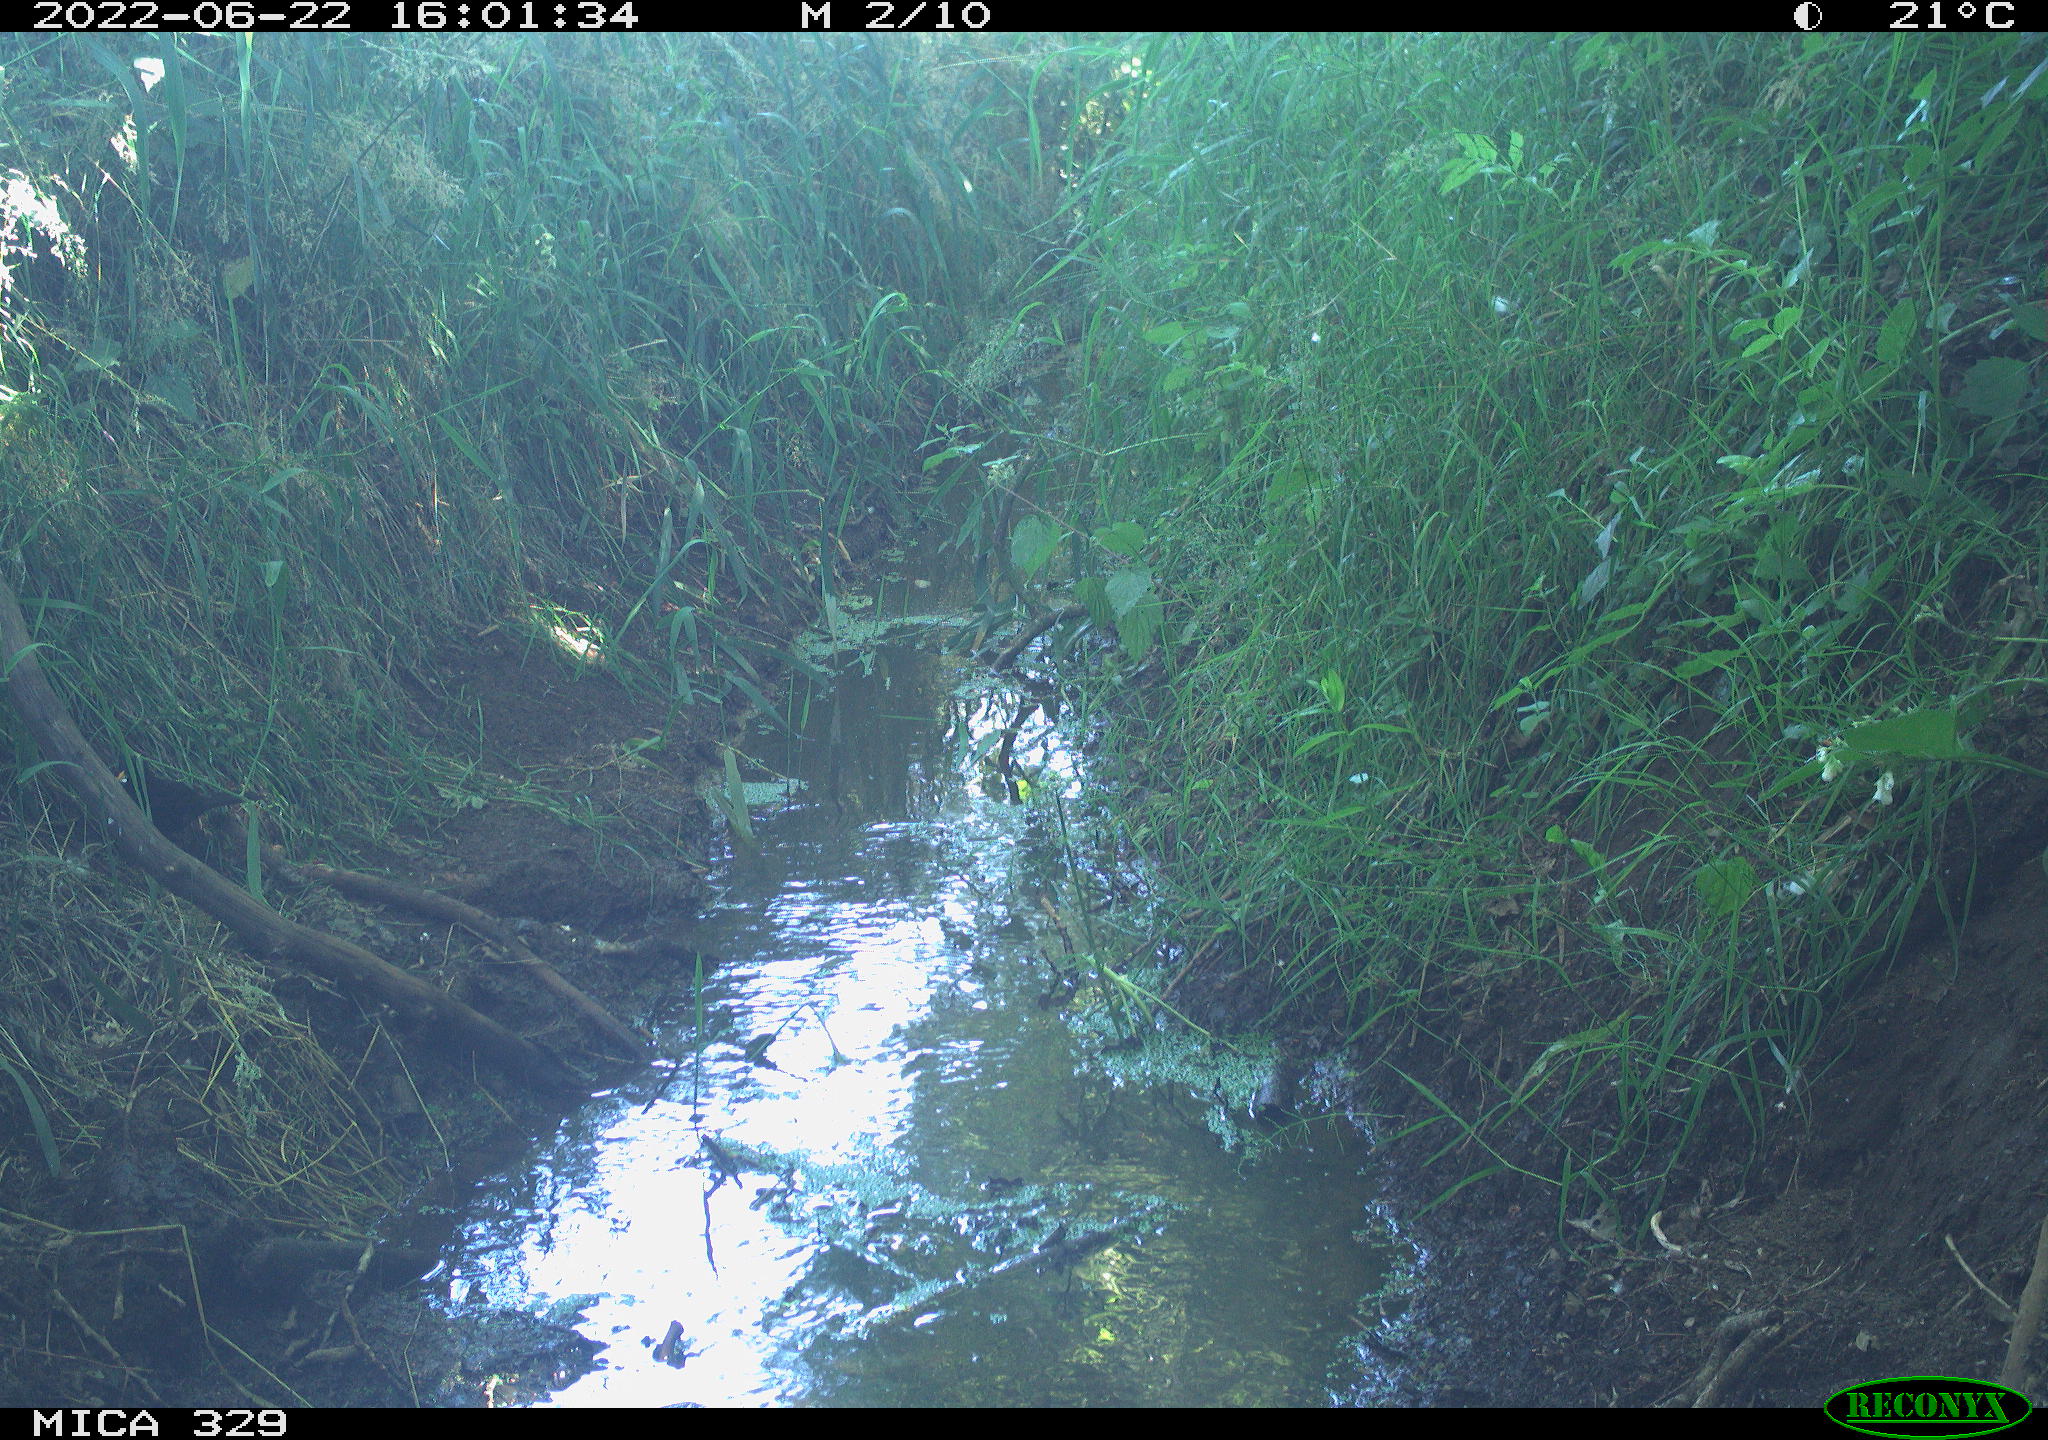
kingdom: Animalia
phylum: Chordata
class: Aves
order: Passeriformes
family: Turdidae
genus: Turdus
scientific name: Turdus merula
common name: Common blackbird
